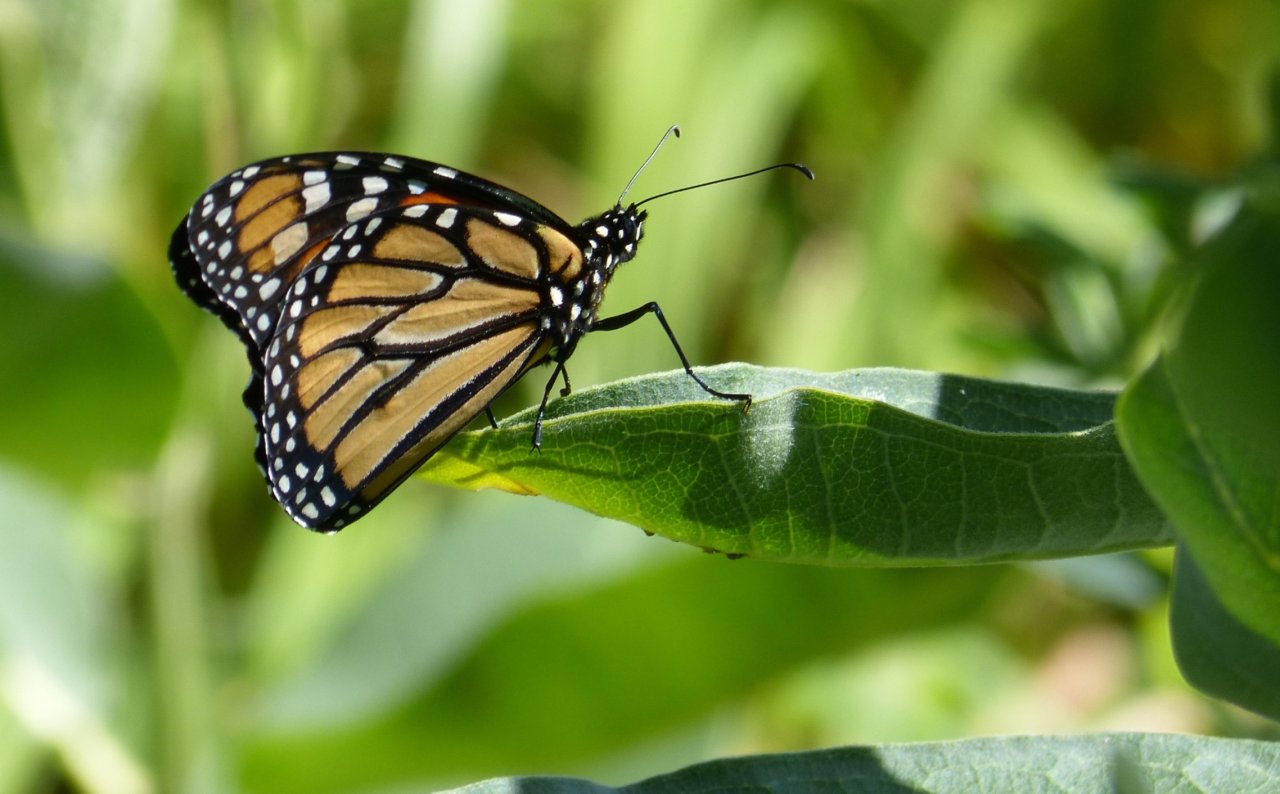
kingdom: Animalia
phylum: Arthropoda
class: Insecta
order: Lepidoptera
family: Nymphalidae
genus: Danaus
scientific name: Danaus plexippus
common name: Monarch
